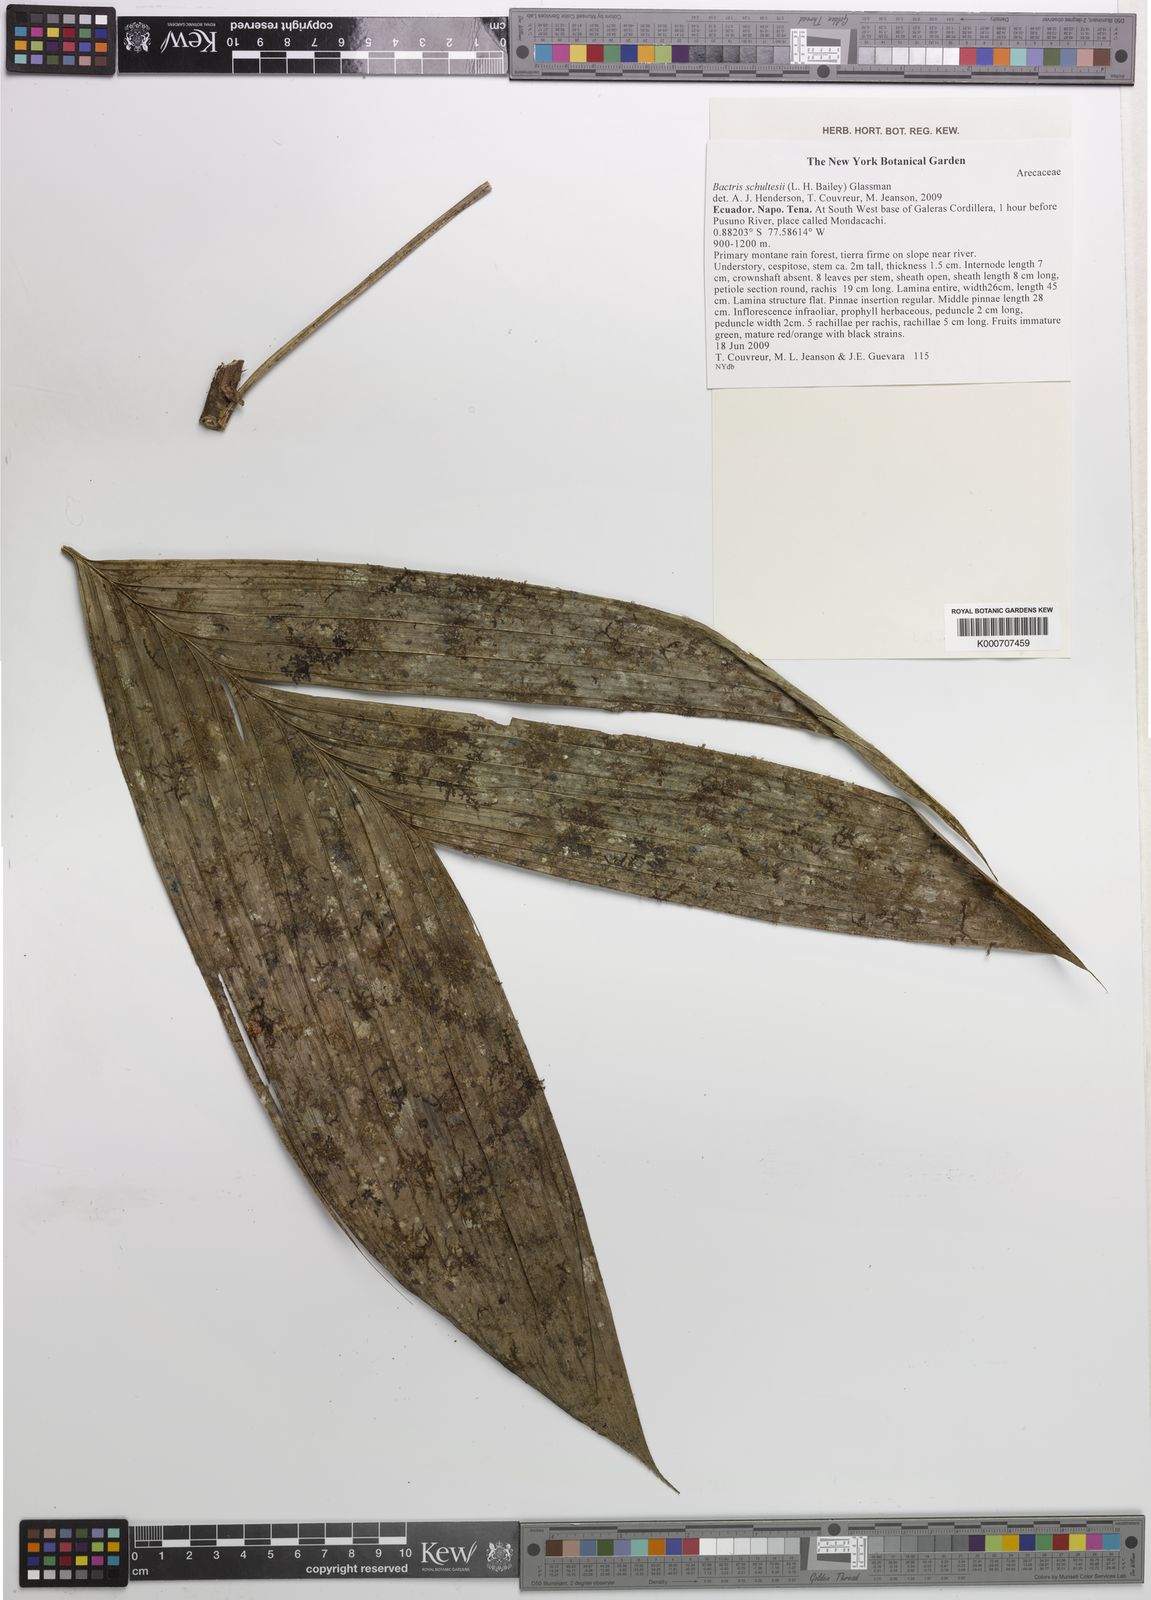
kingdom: Plantae
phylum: Tracheophyta
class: Liliopsida
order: Arecales
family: Arecaceae
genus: Bactris
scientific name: Bactris schultesii
